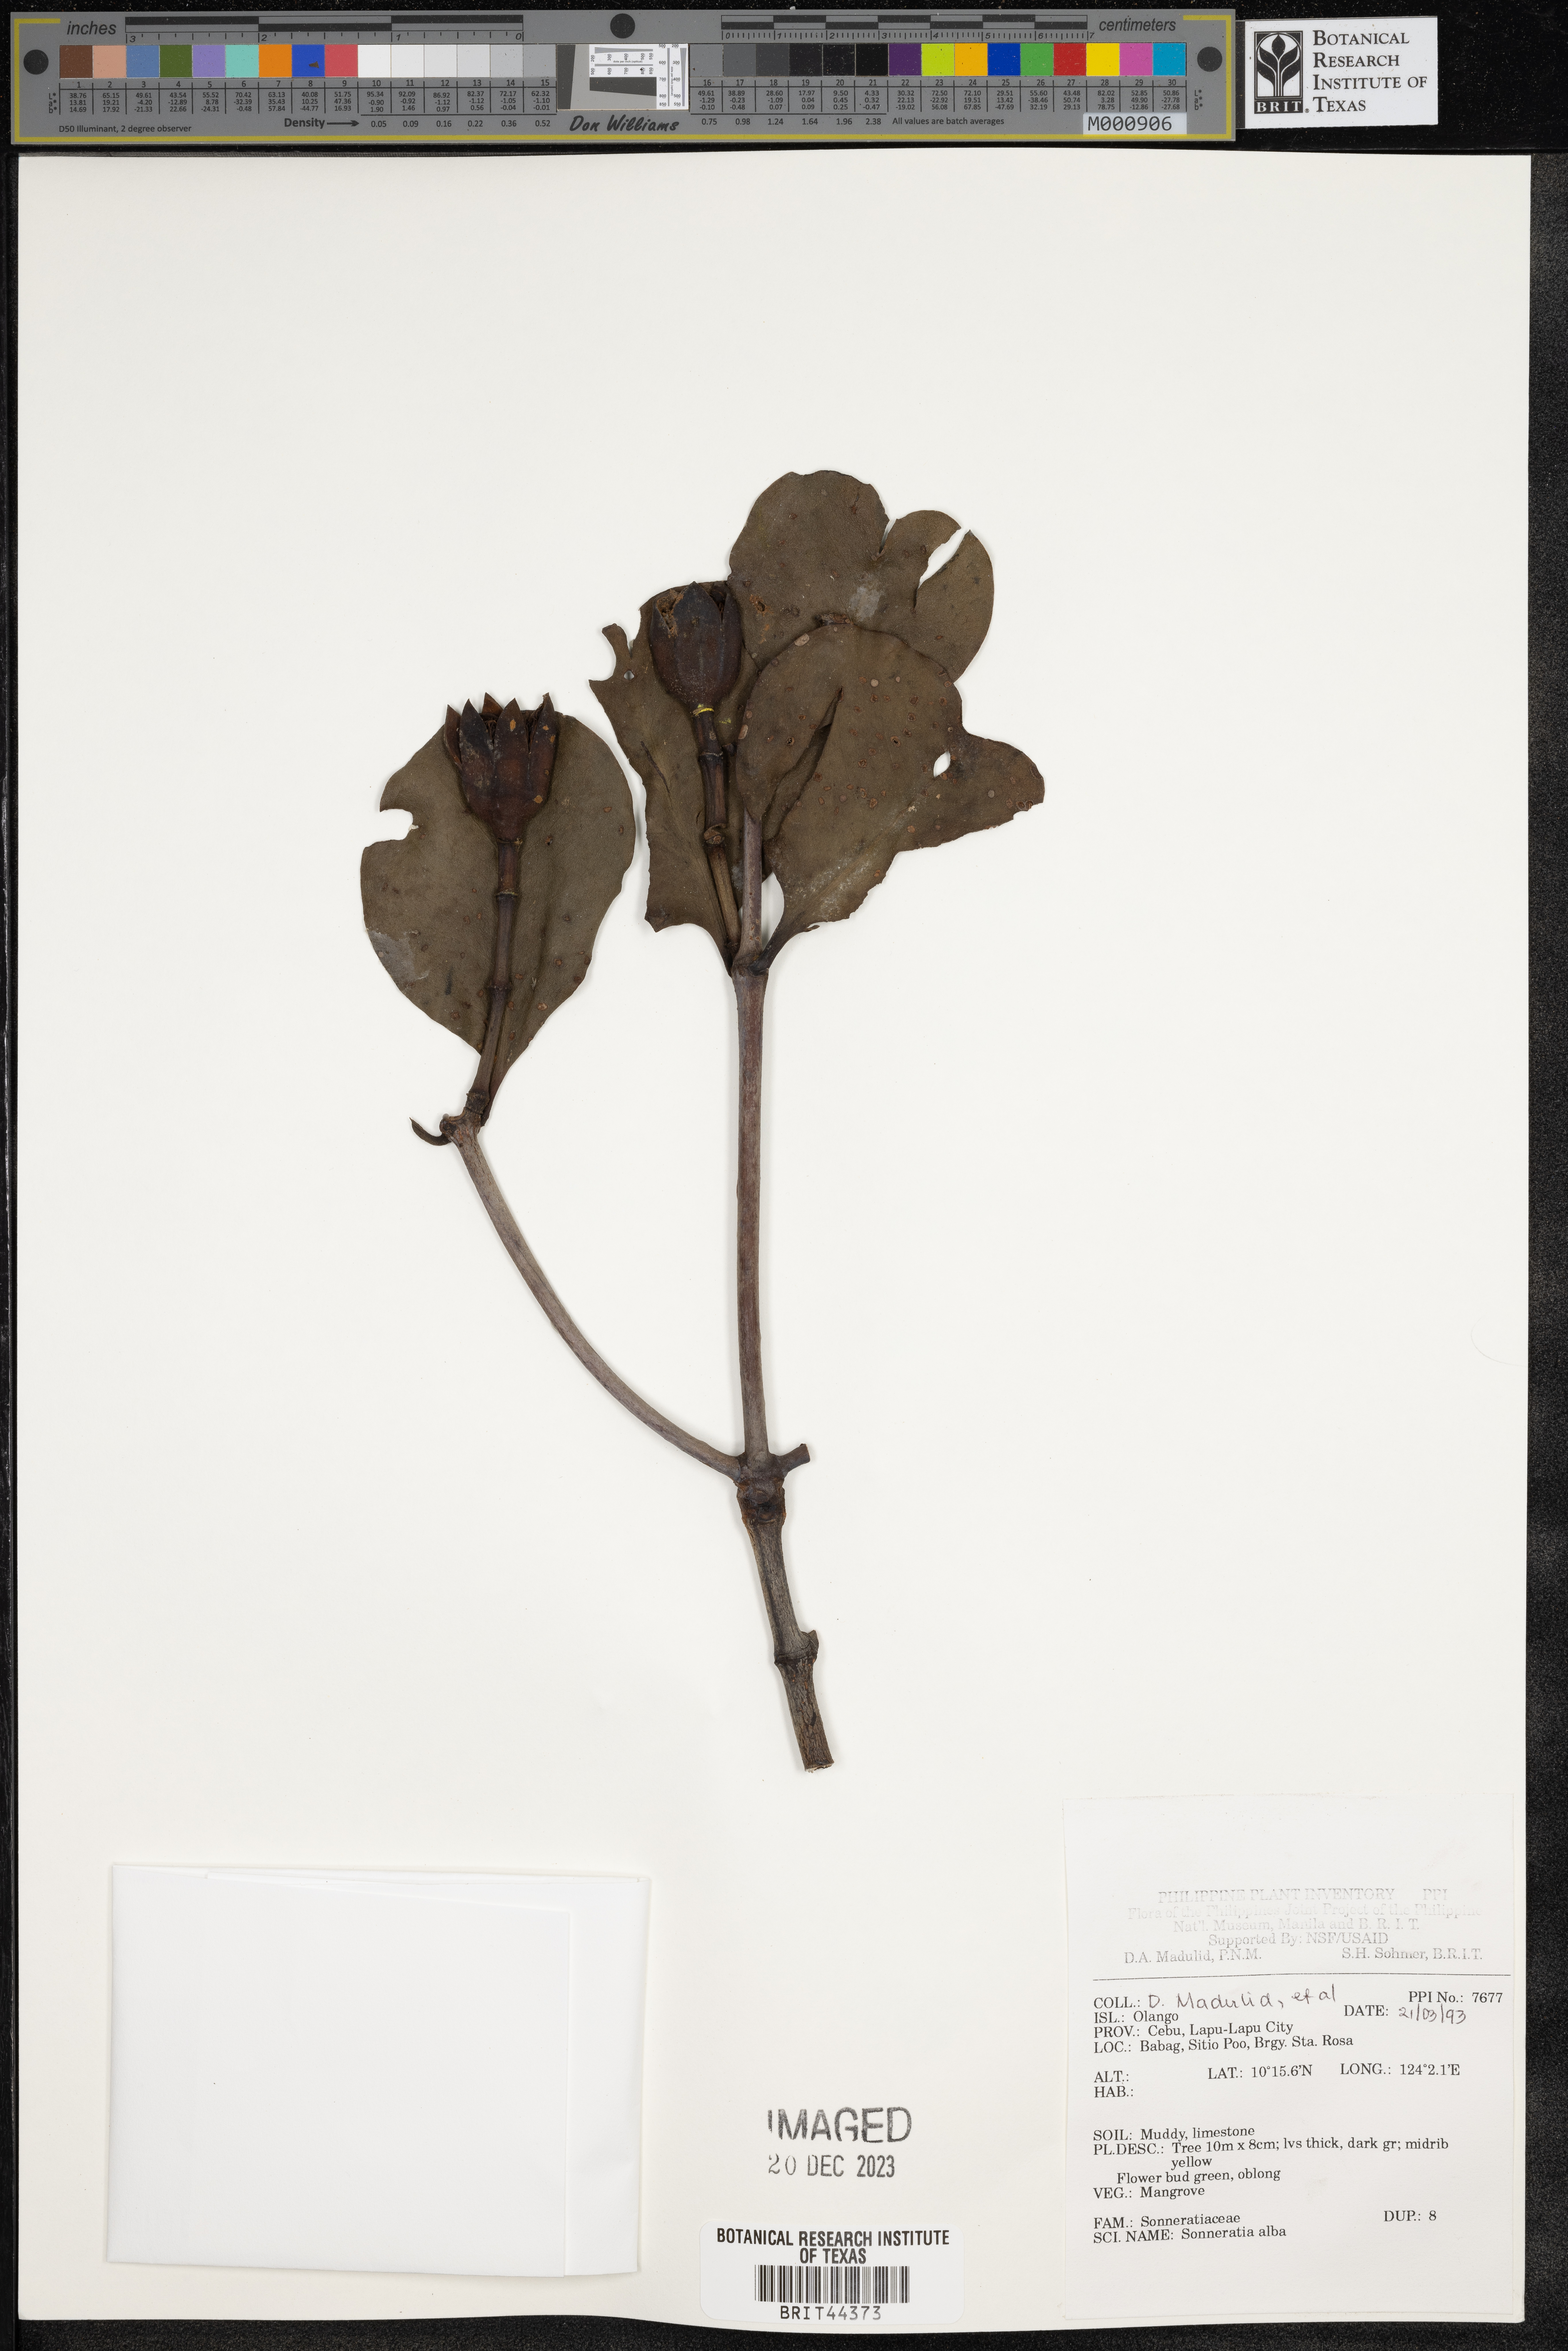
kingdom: Plantae
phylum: Tracheophyta
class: Magnoliopsida
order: Myrtales
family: Lythraceae
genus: Sonneratia
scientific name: Sonneratia alba
